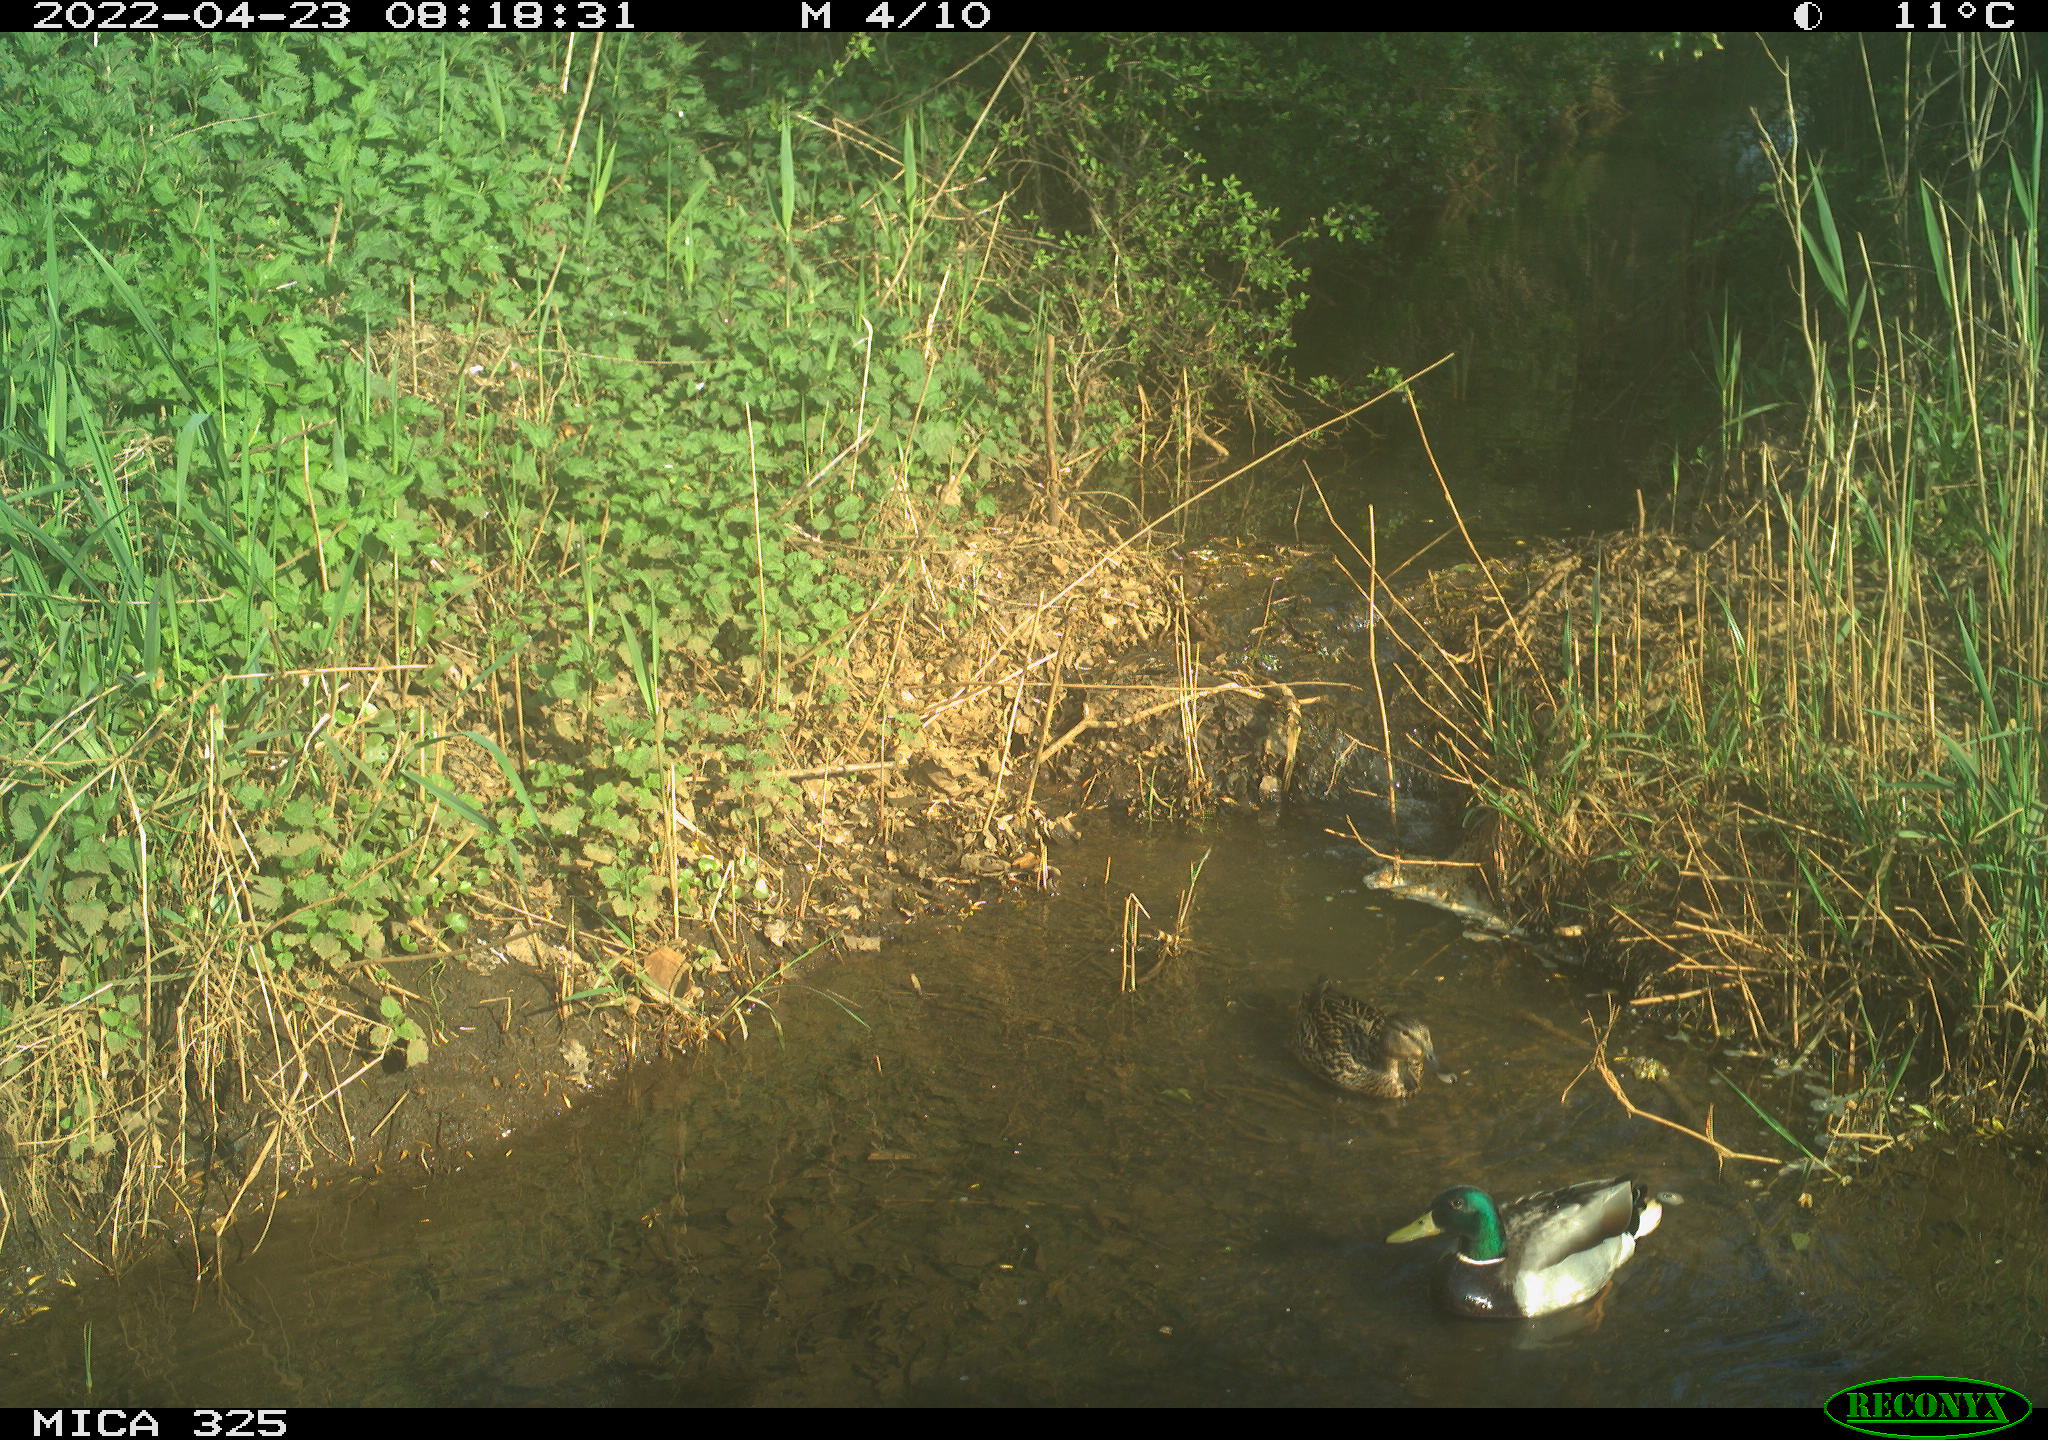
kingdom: Animalia
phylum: Chordata
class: Aves
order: Anseriformes
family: Anatidae
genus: Anas
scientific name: Anas platyrhynchos
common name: Mallard
